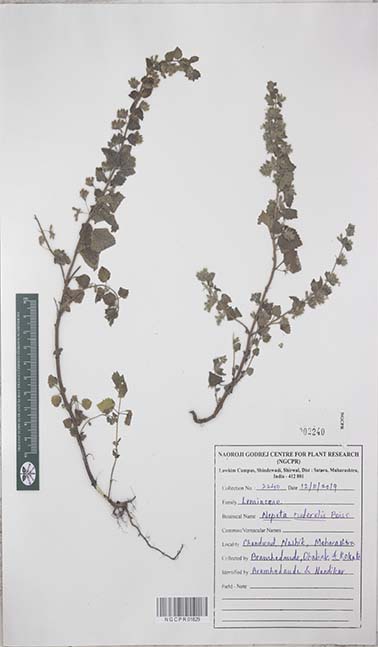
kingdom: Plantae
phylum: Tracheophyta
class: Magnoliopsida
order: Lamiales
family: Lamiaceae
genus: Nepeta
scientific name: Nepeta ruderalis
